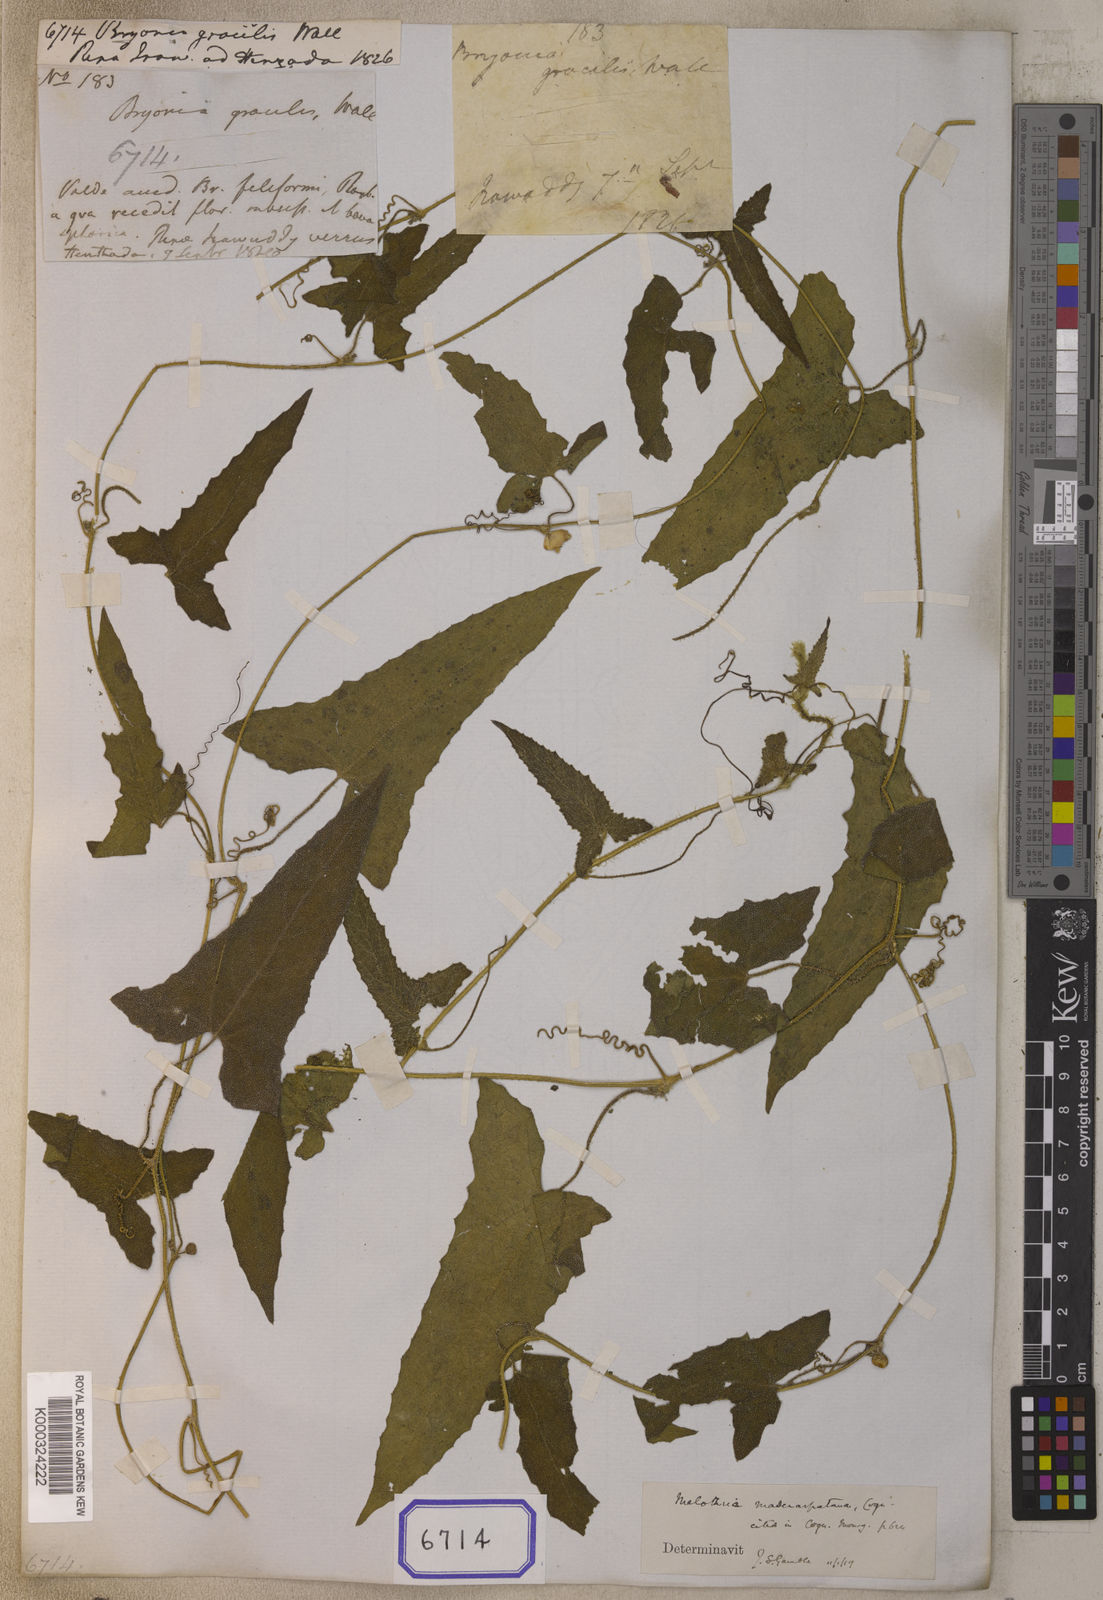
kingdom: Plantae
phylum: Tracheophyta
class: Magnoliopsida
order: Cucurbitales
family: Cucurbitaceae
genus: Cucumis
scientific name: Cucumis gracilis
